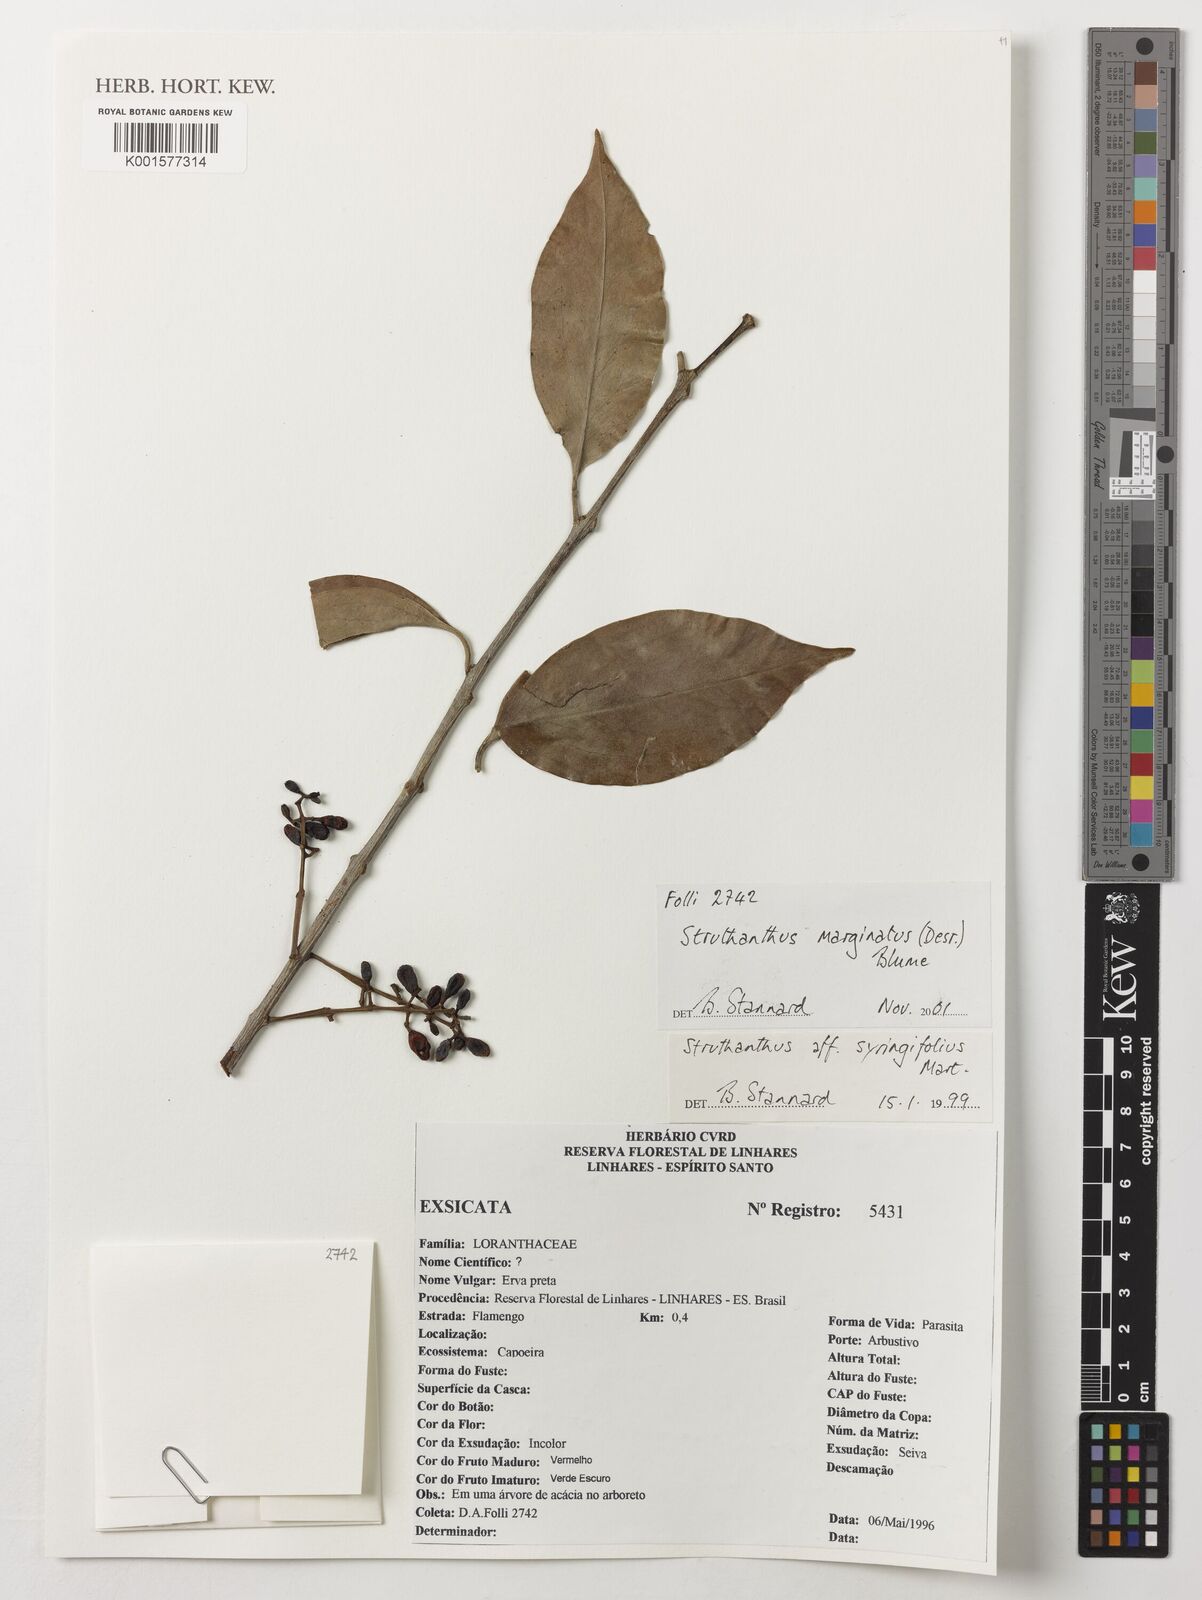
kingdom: Plantae
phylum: Tracheophyta
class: Magnoliopsida
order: Santalales
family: Loranthaceae
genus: Struthanthus
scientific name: Struthanthus marginatus
